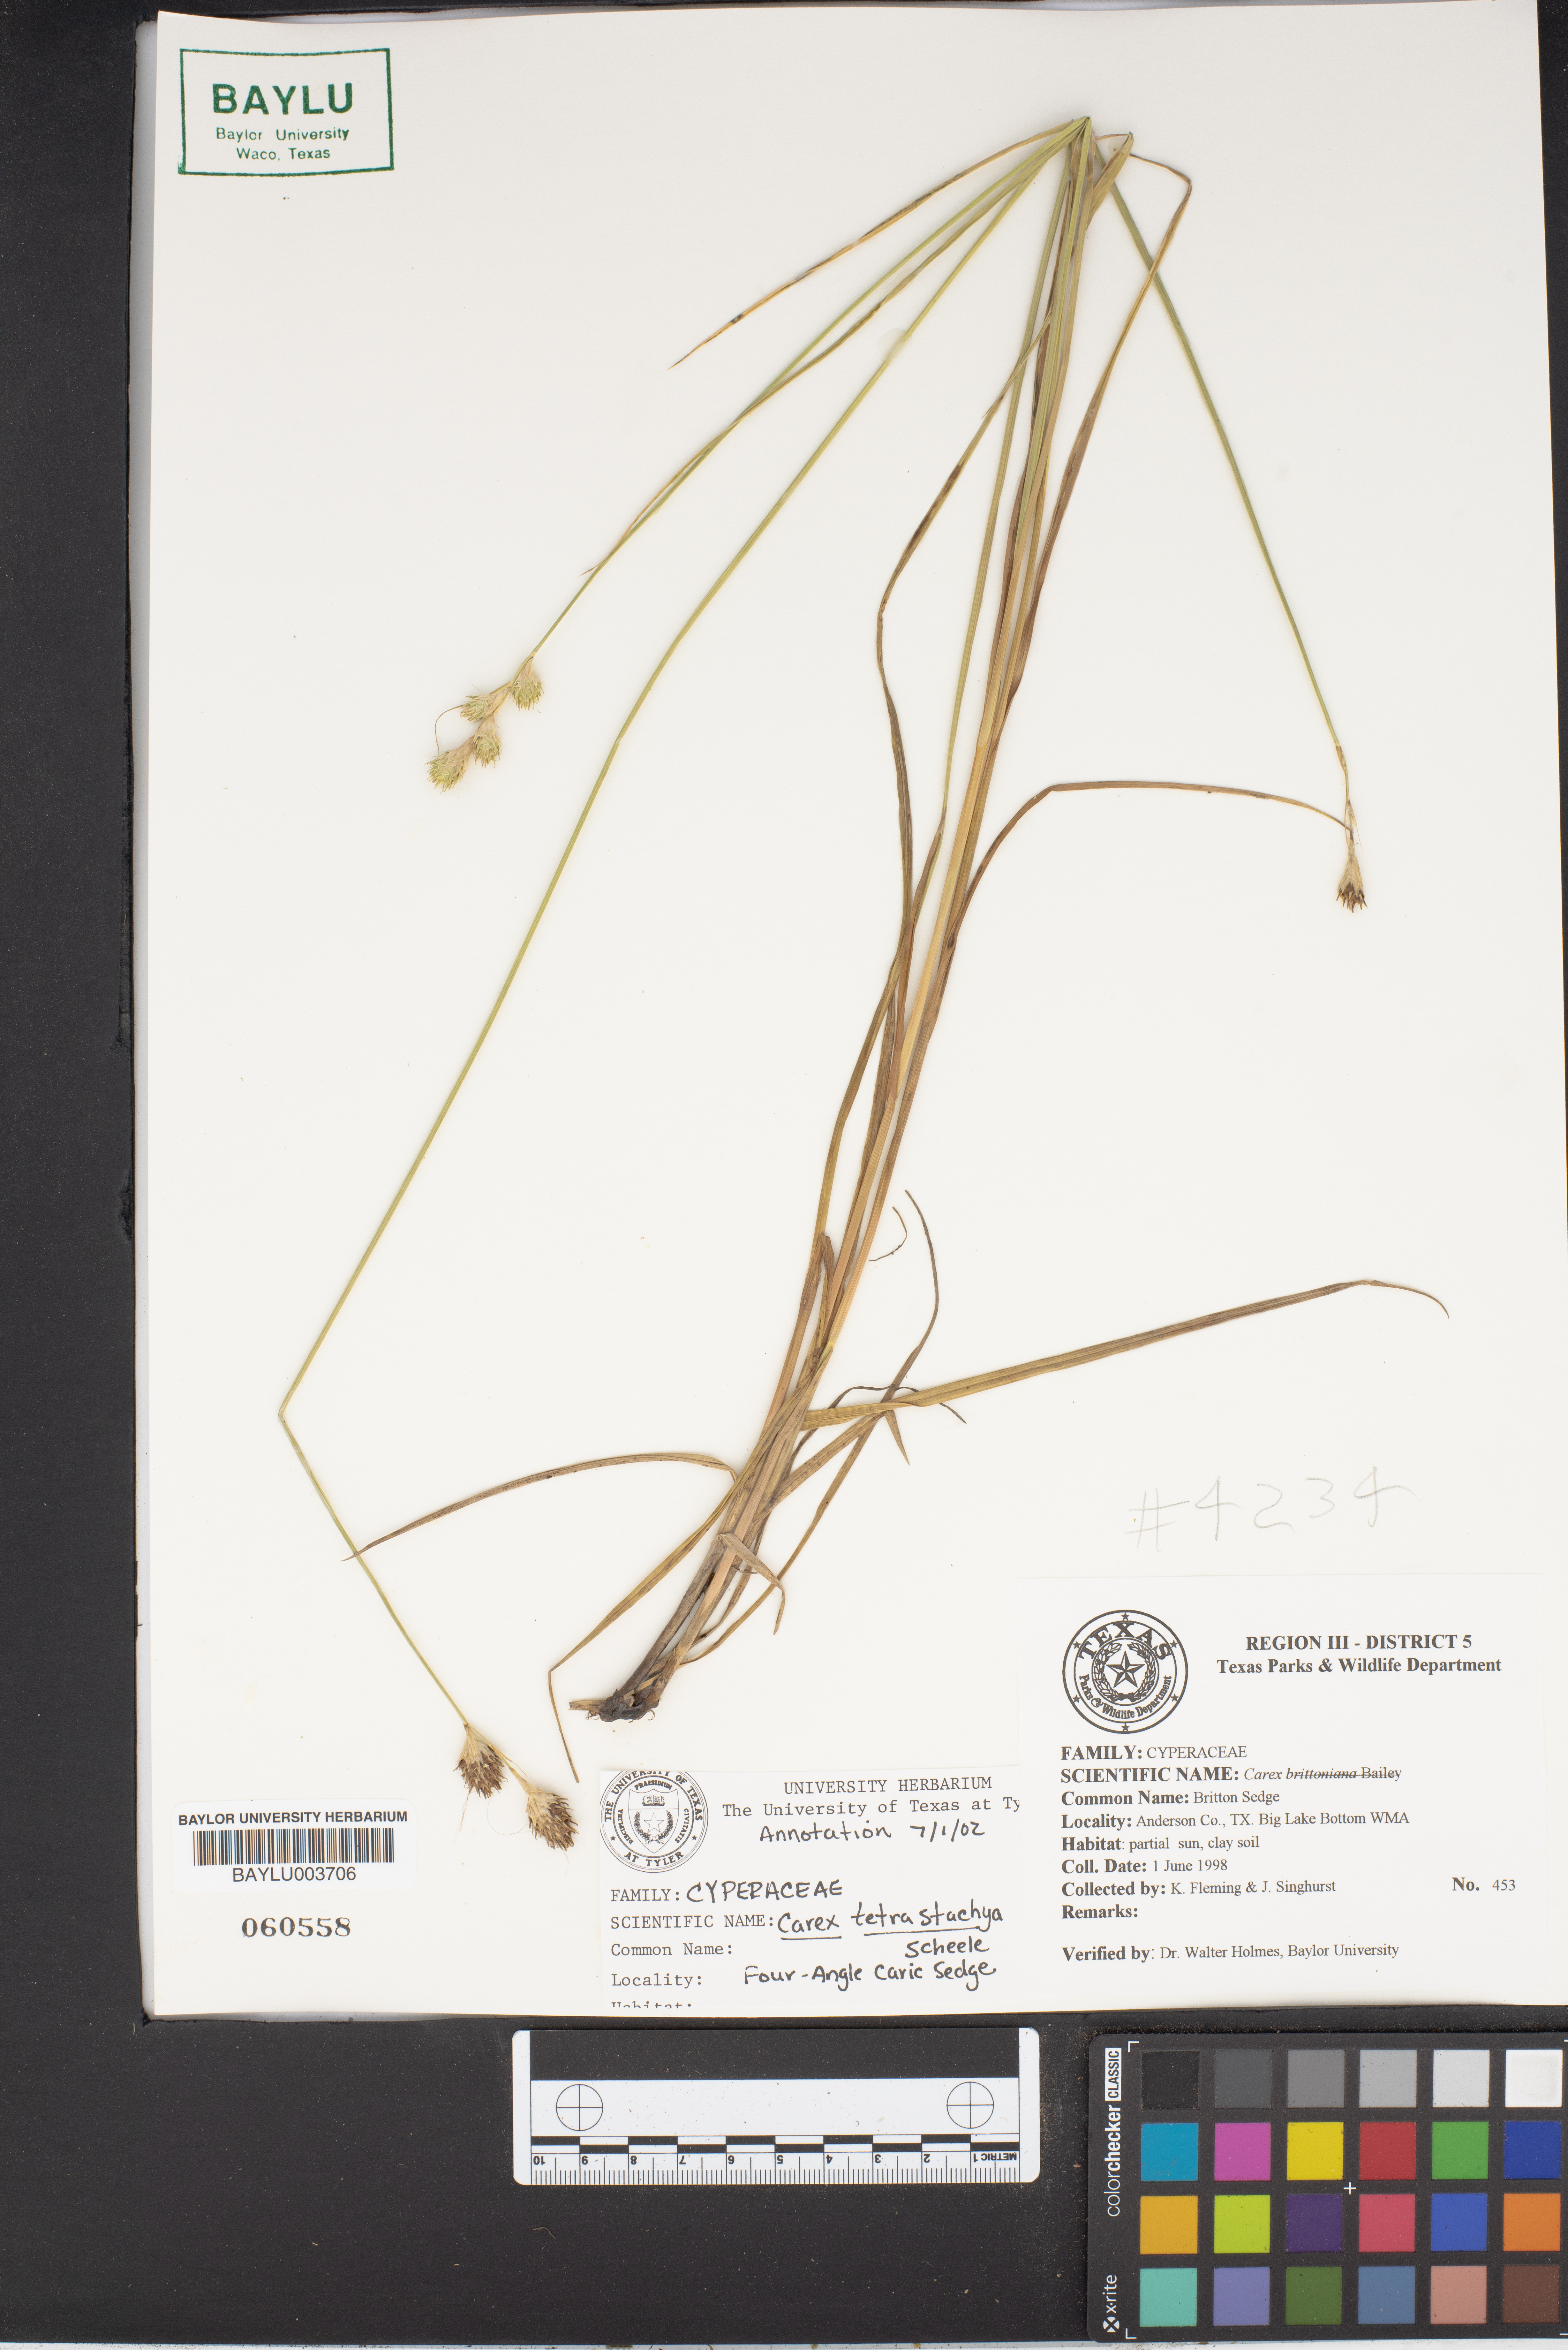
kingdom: Plantae
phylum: Tracheophyta
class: Liliopsida
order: Poales
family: Cyperaceae
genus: Carex
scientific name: Carex tetrastachya
